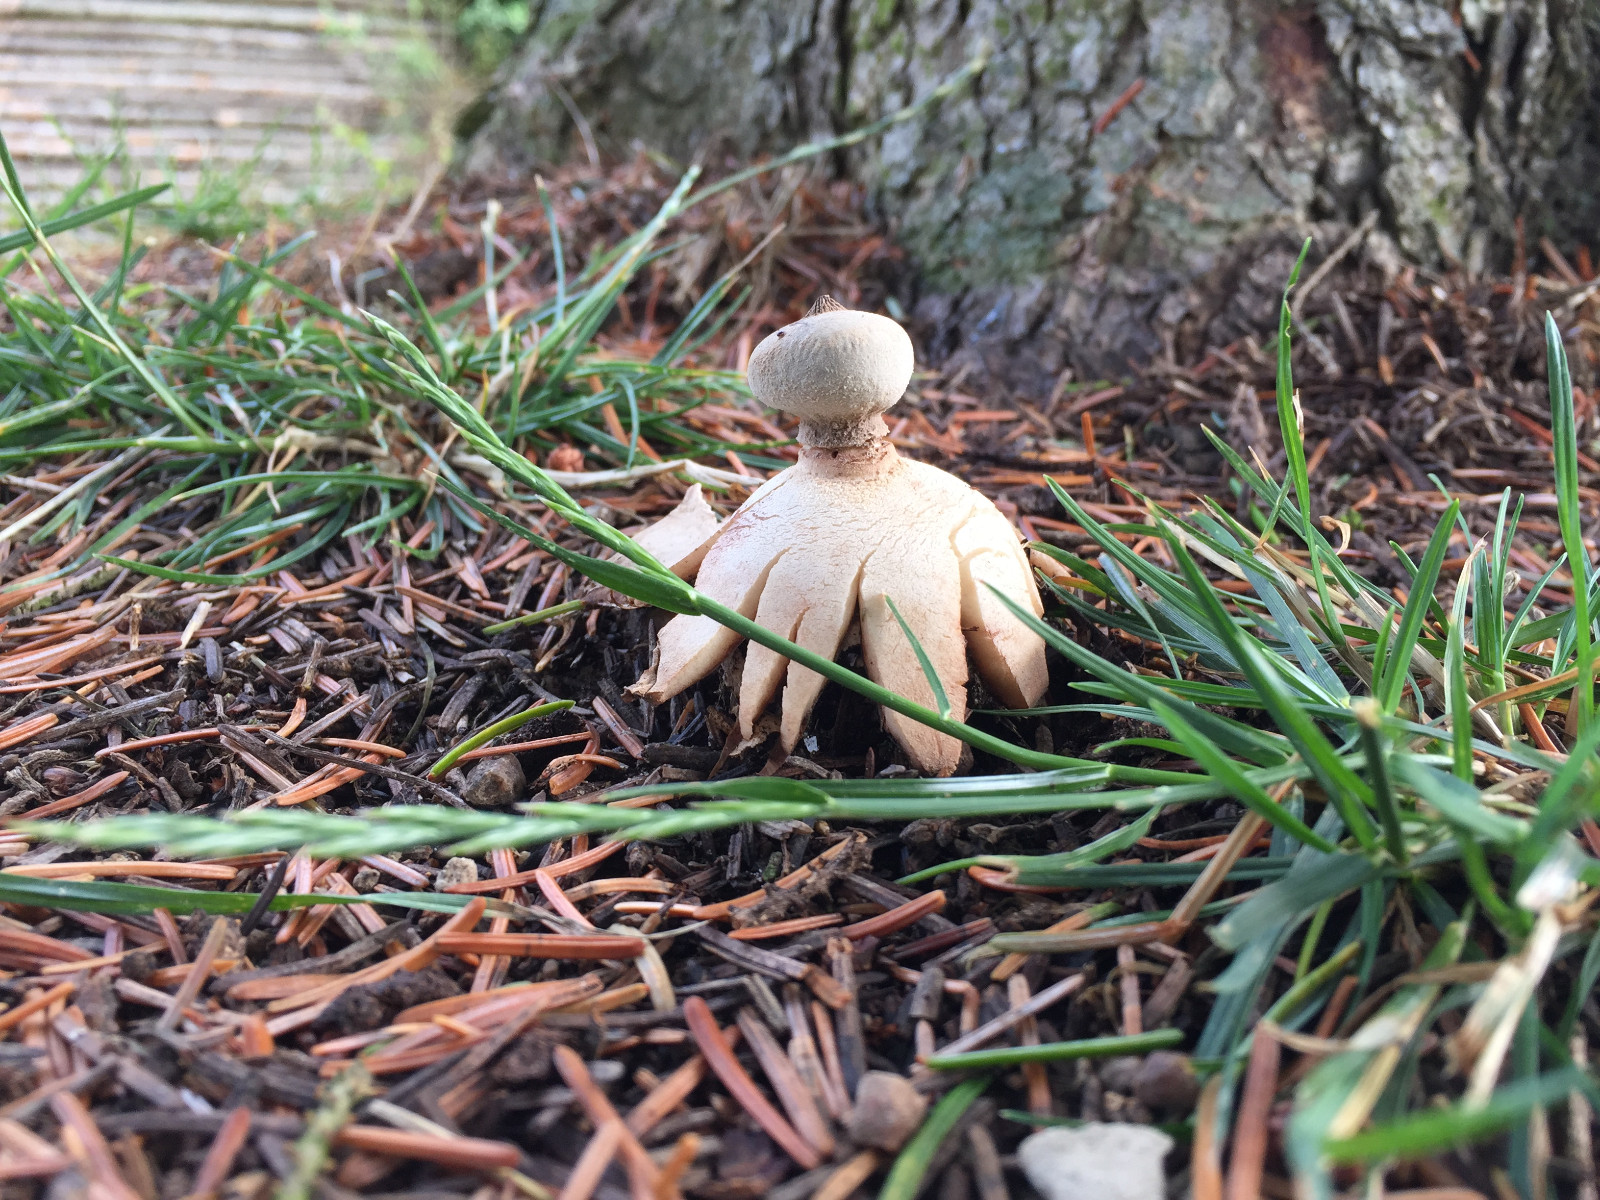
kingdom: Fungi
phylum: Basidiomycota
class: Agaricomycetes
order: Geastrales
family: Geastraceae
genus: Geastrum
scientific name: Geastrum striatum
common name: krave-stjernebold
